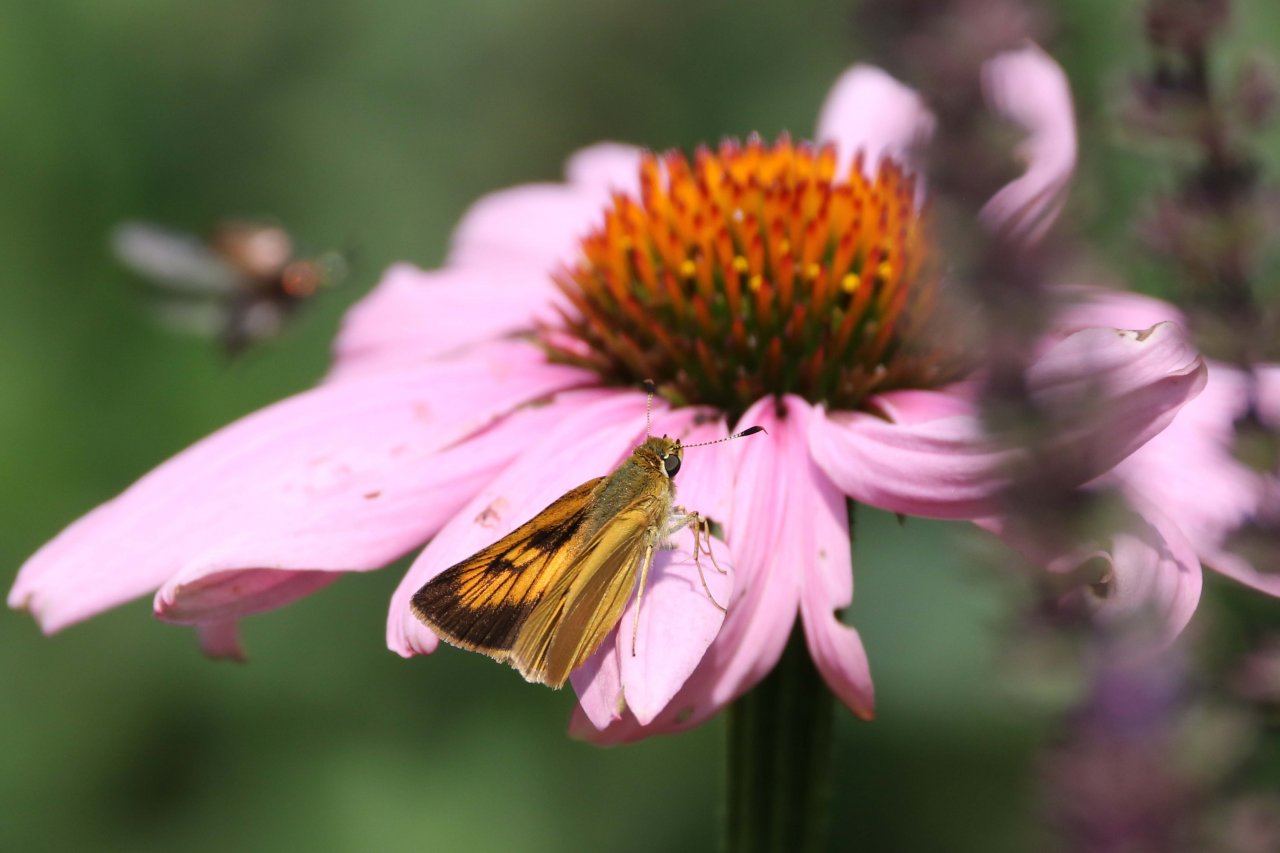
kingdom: Animalia
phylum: Arthropoda
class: Insecta
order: Lepidoptera
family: Hesperiidae
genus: Atrytone
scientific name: Atrytone delaware
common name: Delaware Skipper
